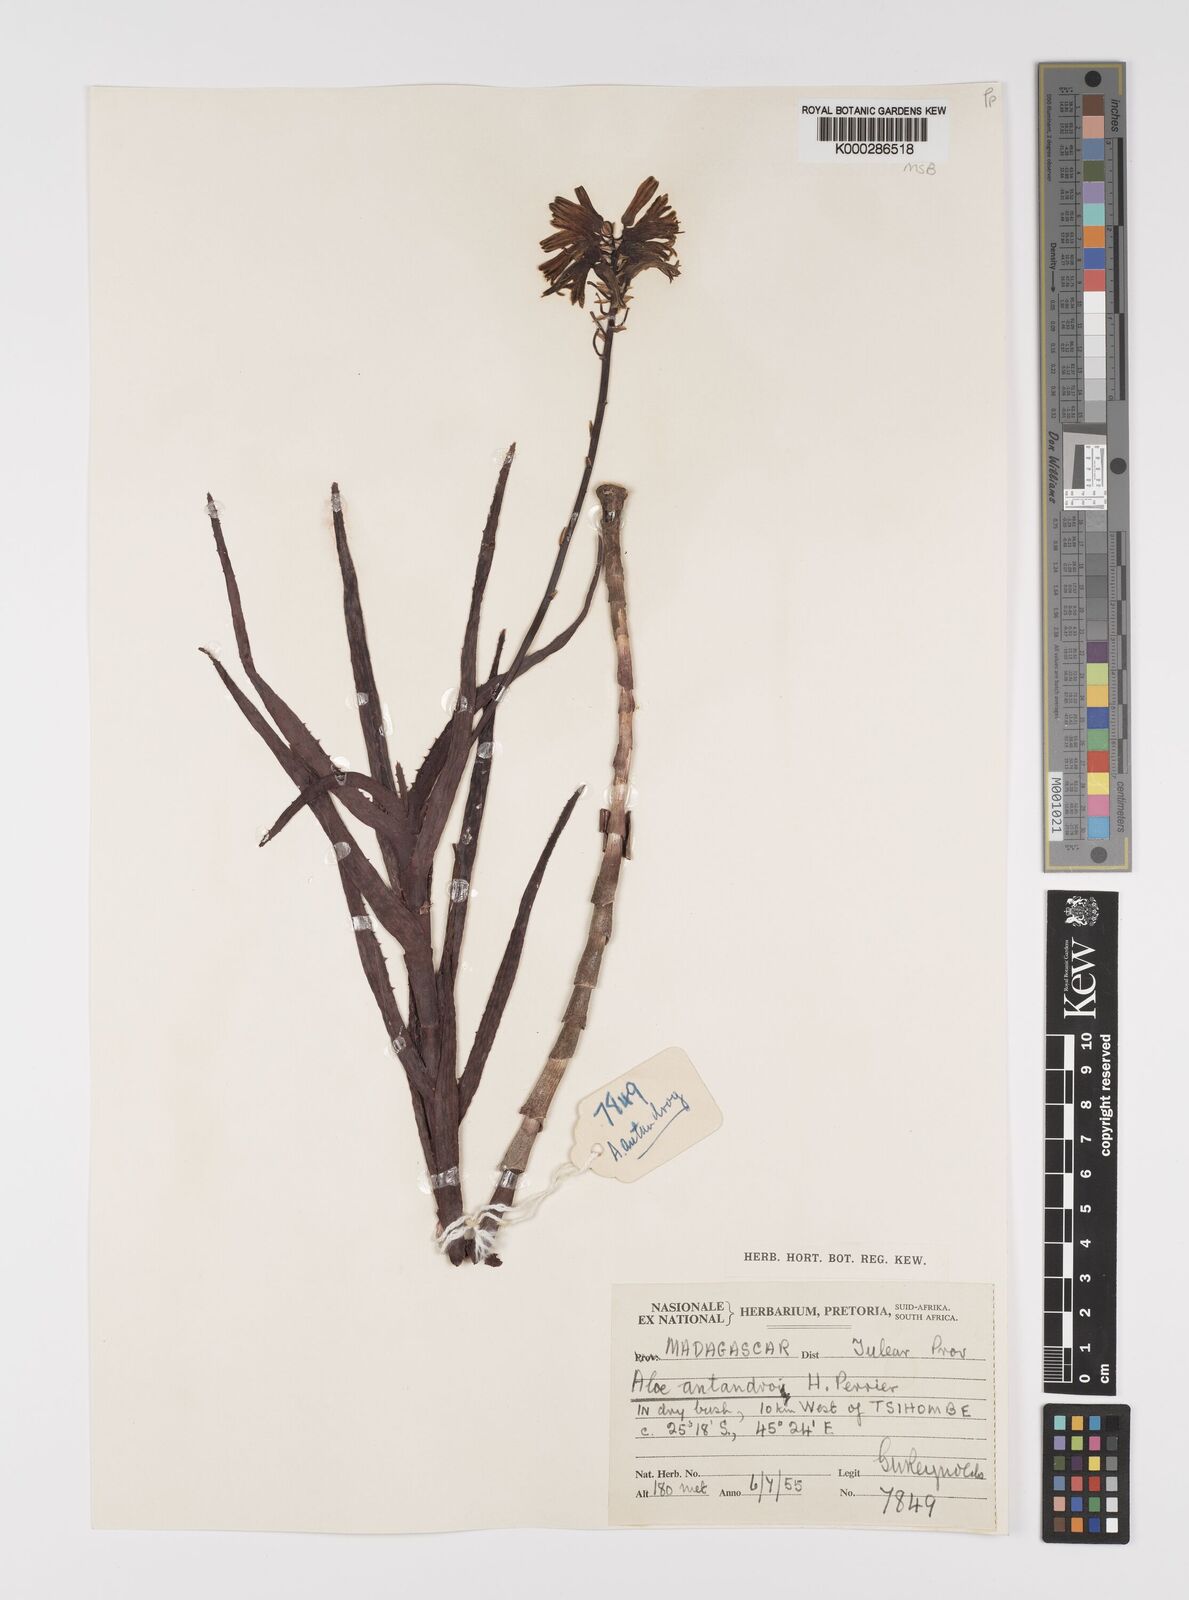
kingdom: Plantae
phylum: Tracheophyta
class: Liliopsida
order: Asparagales
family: Asphodelaceae
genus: Aloe
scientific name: Aloe
